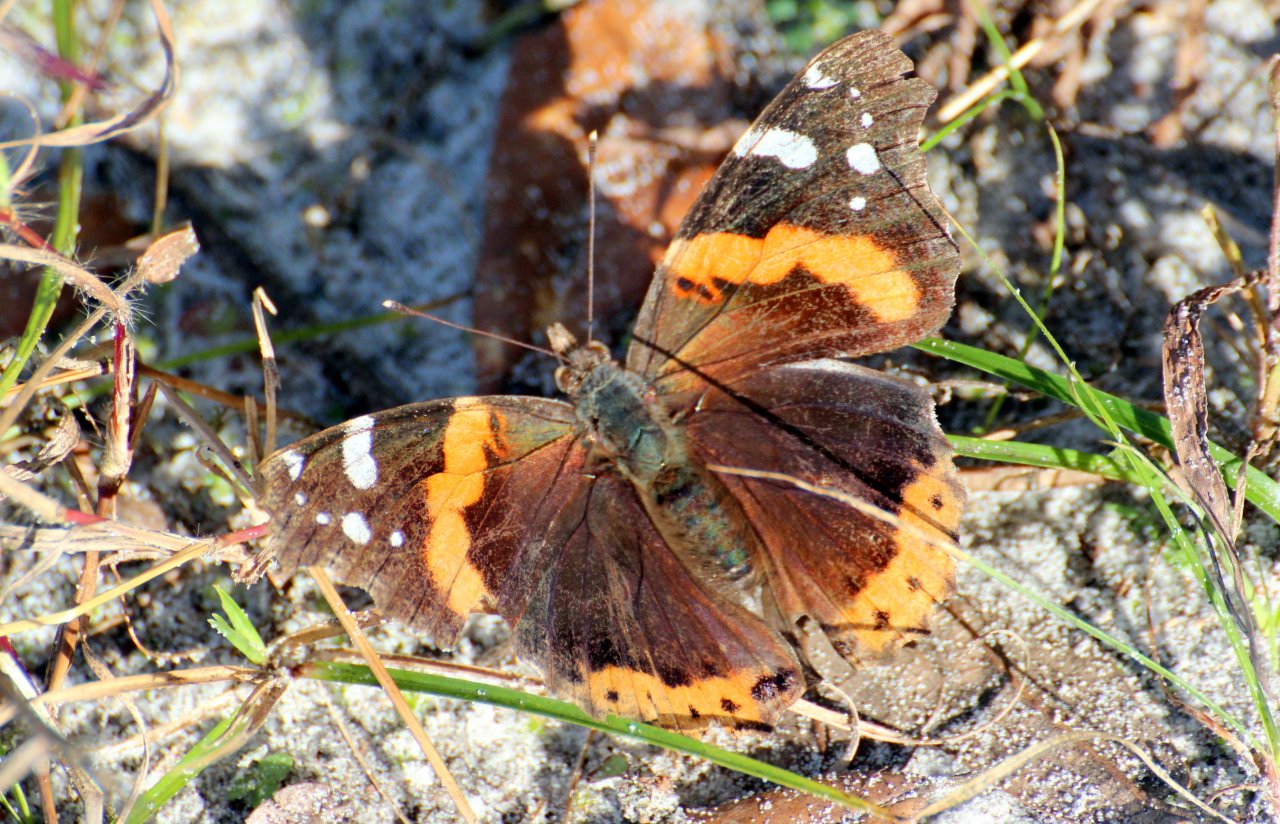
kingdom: Animalia
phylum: Arthropoda
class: Insecta
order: Lepidoptera
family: Nymphalidae
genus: Vanessa
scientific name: Vanessa atalanta
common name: Red Admiral
